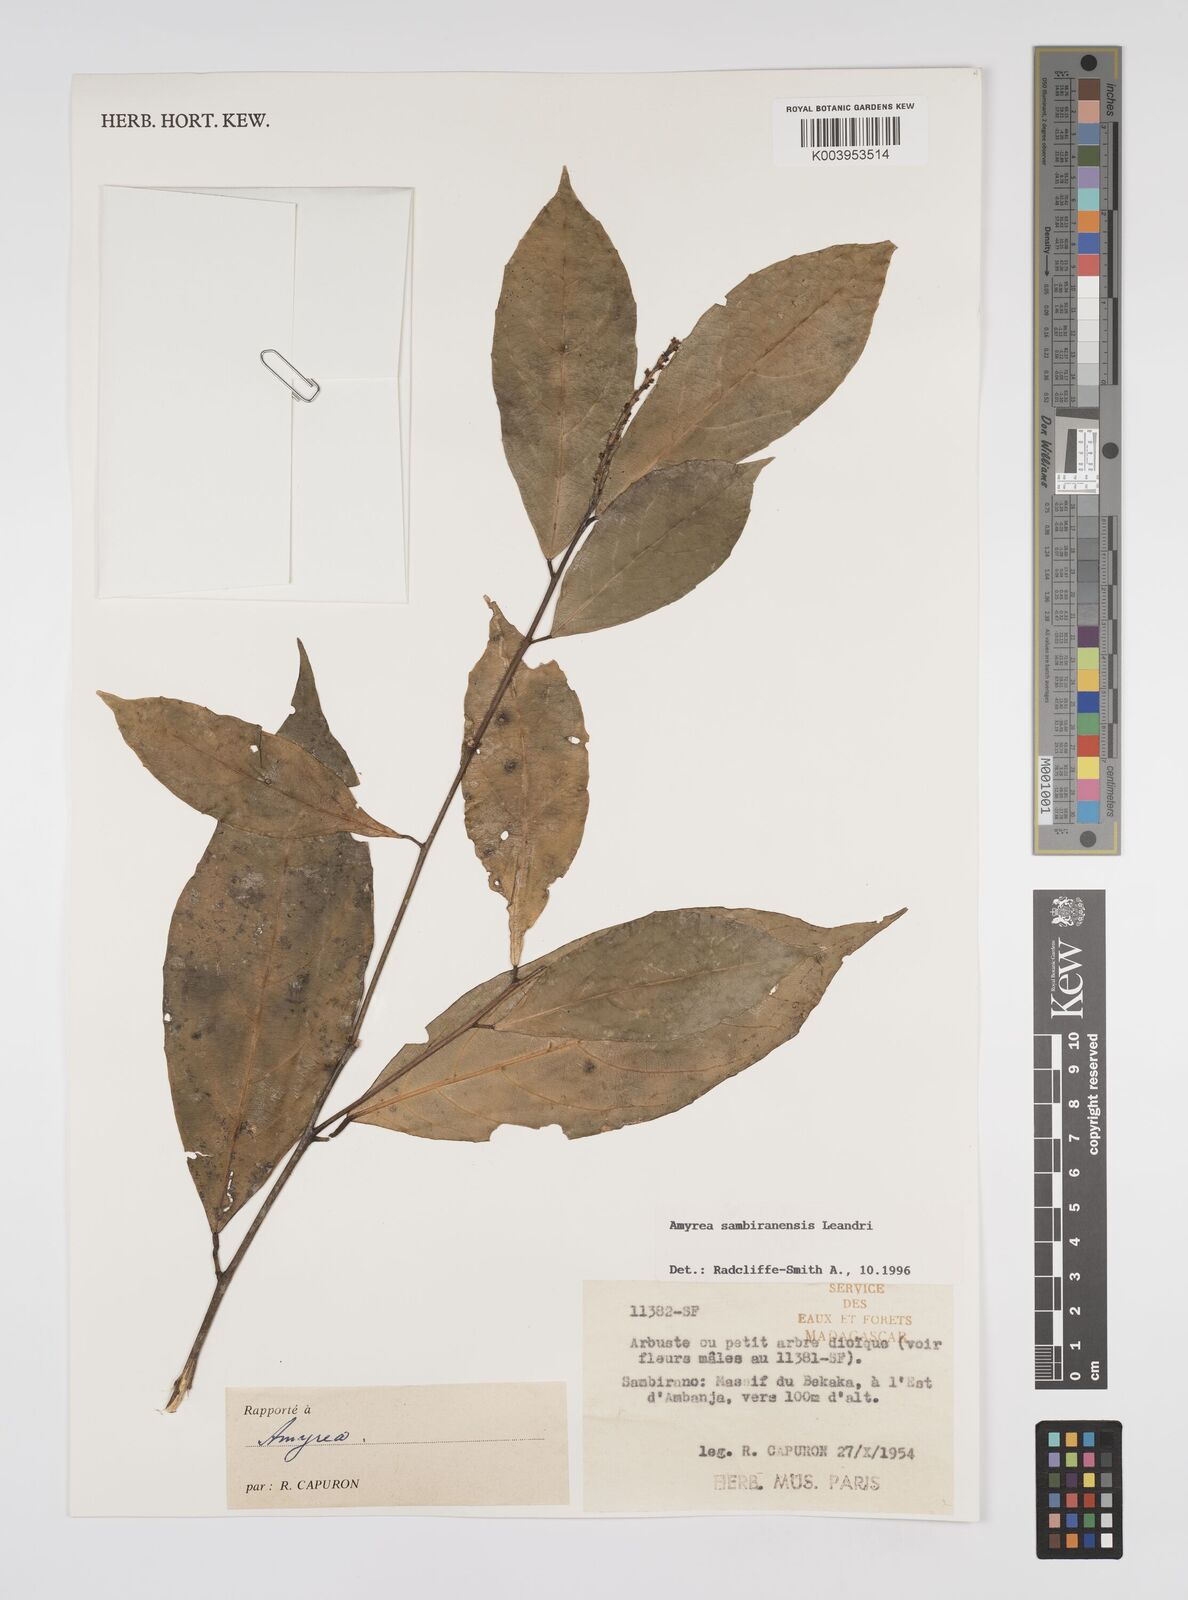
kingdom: Plantae
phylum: Tracheophyta
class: Magnoliopsida
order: Malpighiales
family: Euphorbiaceae
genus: Amyrea
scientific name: Amyrea sambiranensis
